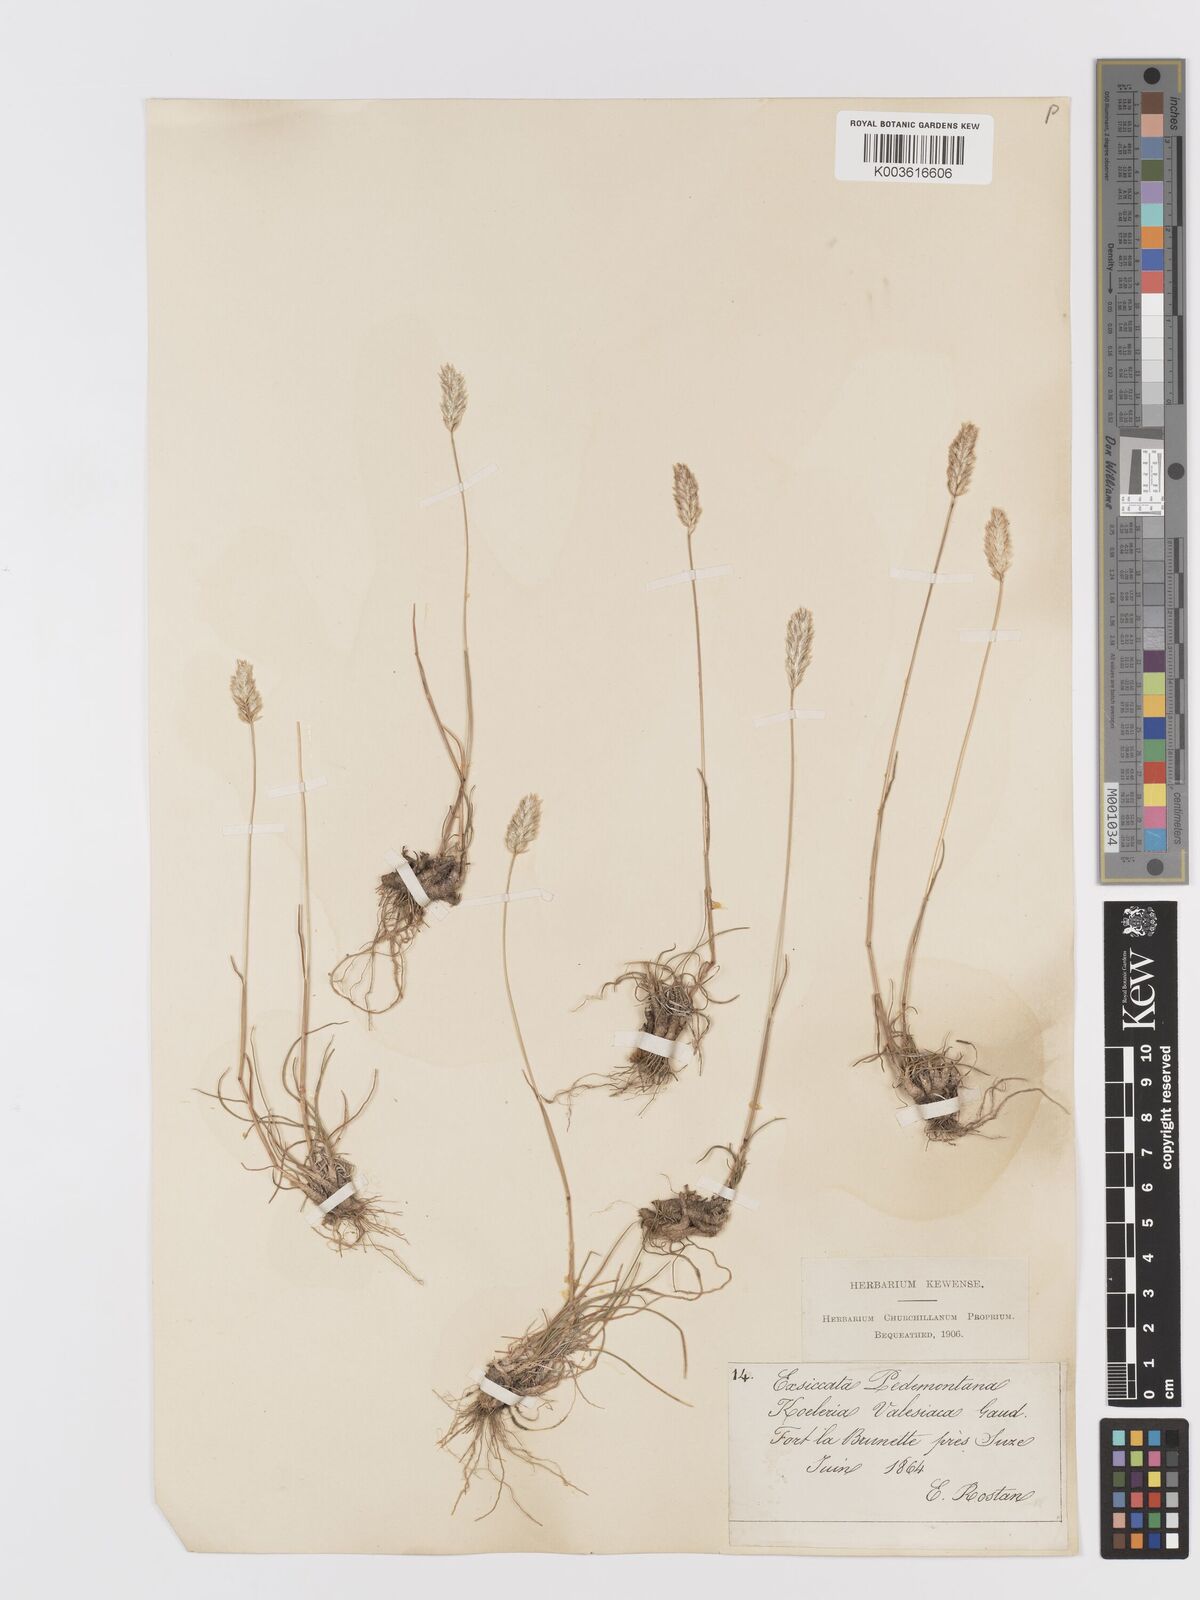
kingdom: Plantae
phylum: Tracheophyta
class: Liliopsida
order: Poales
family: Poaceae
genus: Koeleria
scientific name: Koeleria vallesiana
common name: Somerset hair-grass
